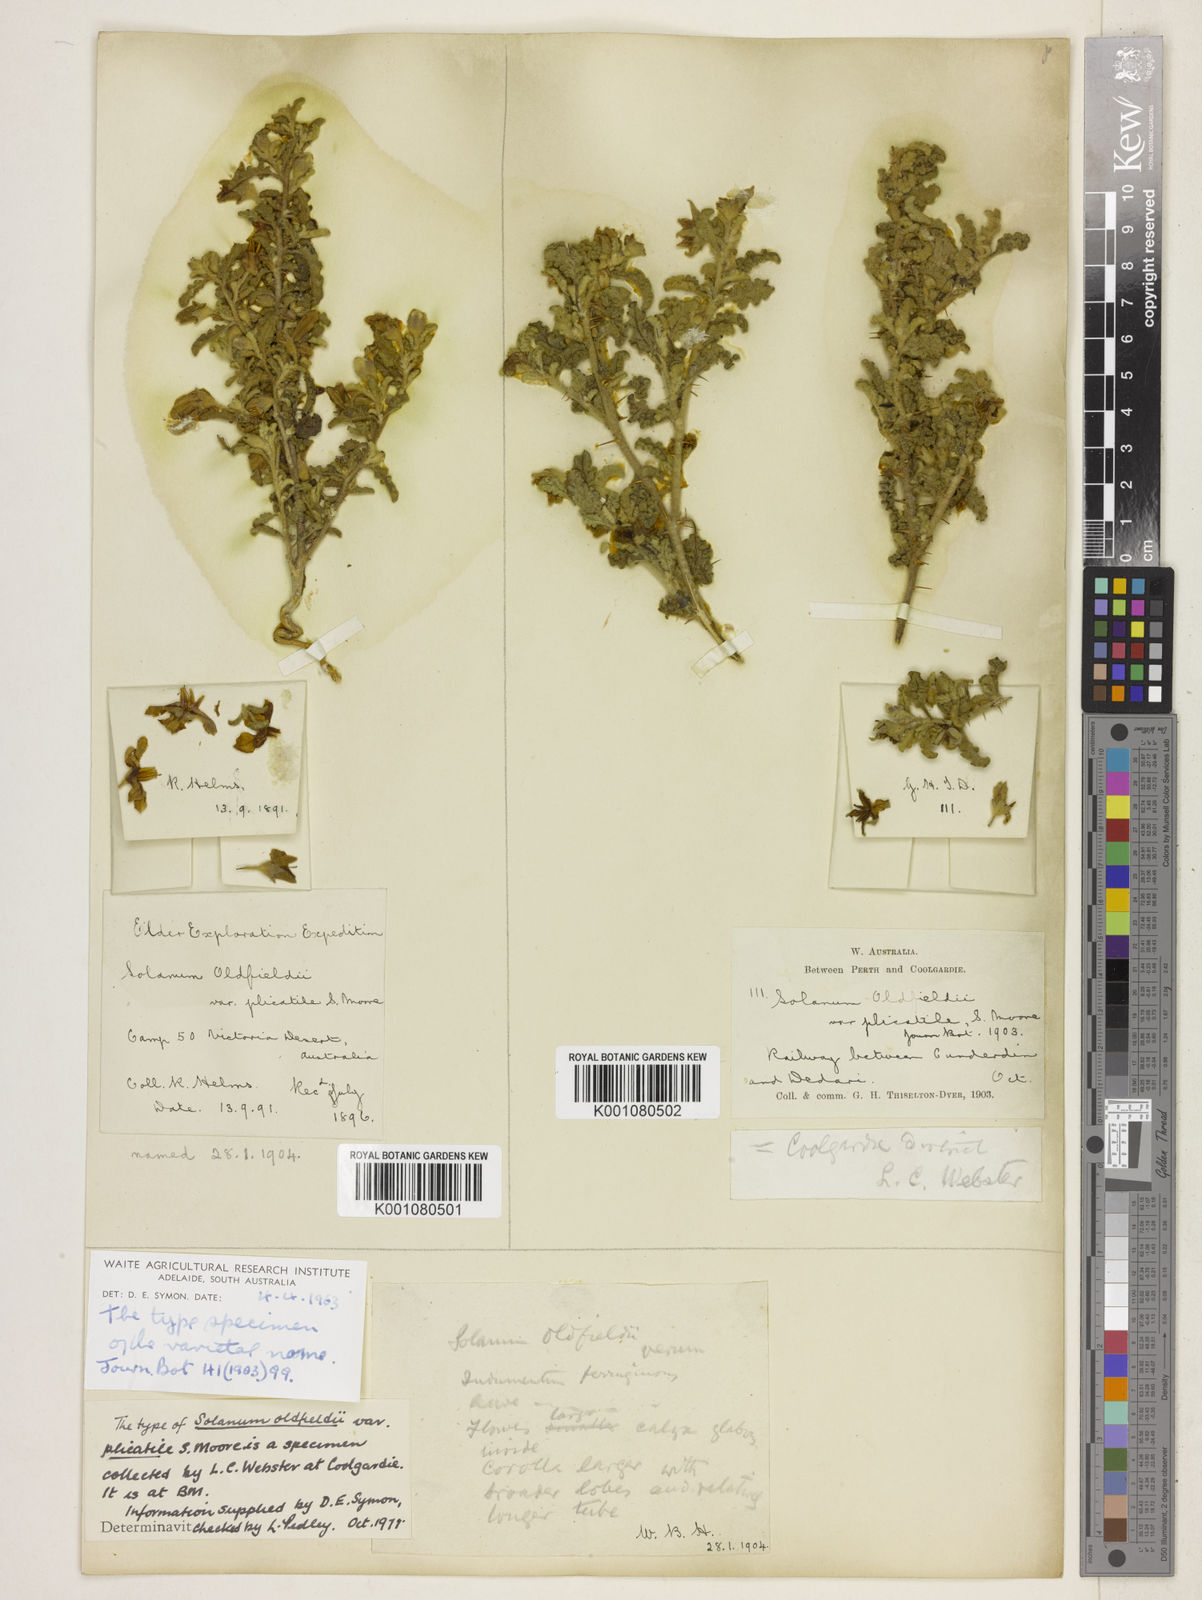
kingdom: Plantae
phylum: Tracheophyta
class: Magnoliopsida
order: Solanales
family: Solanaceae
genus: Solanum
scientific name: Solanum plicatile
